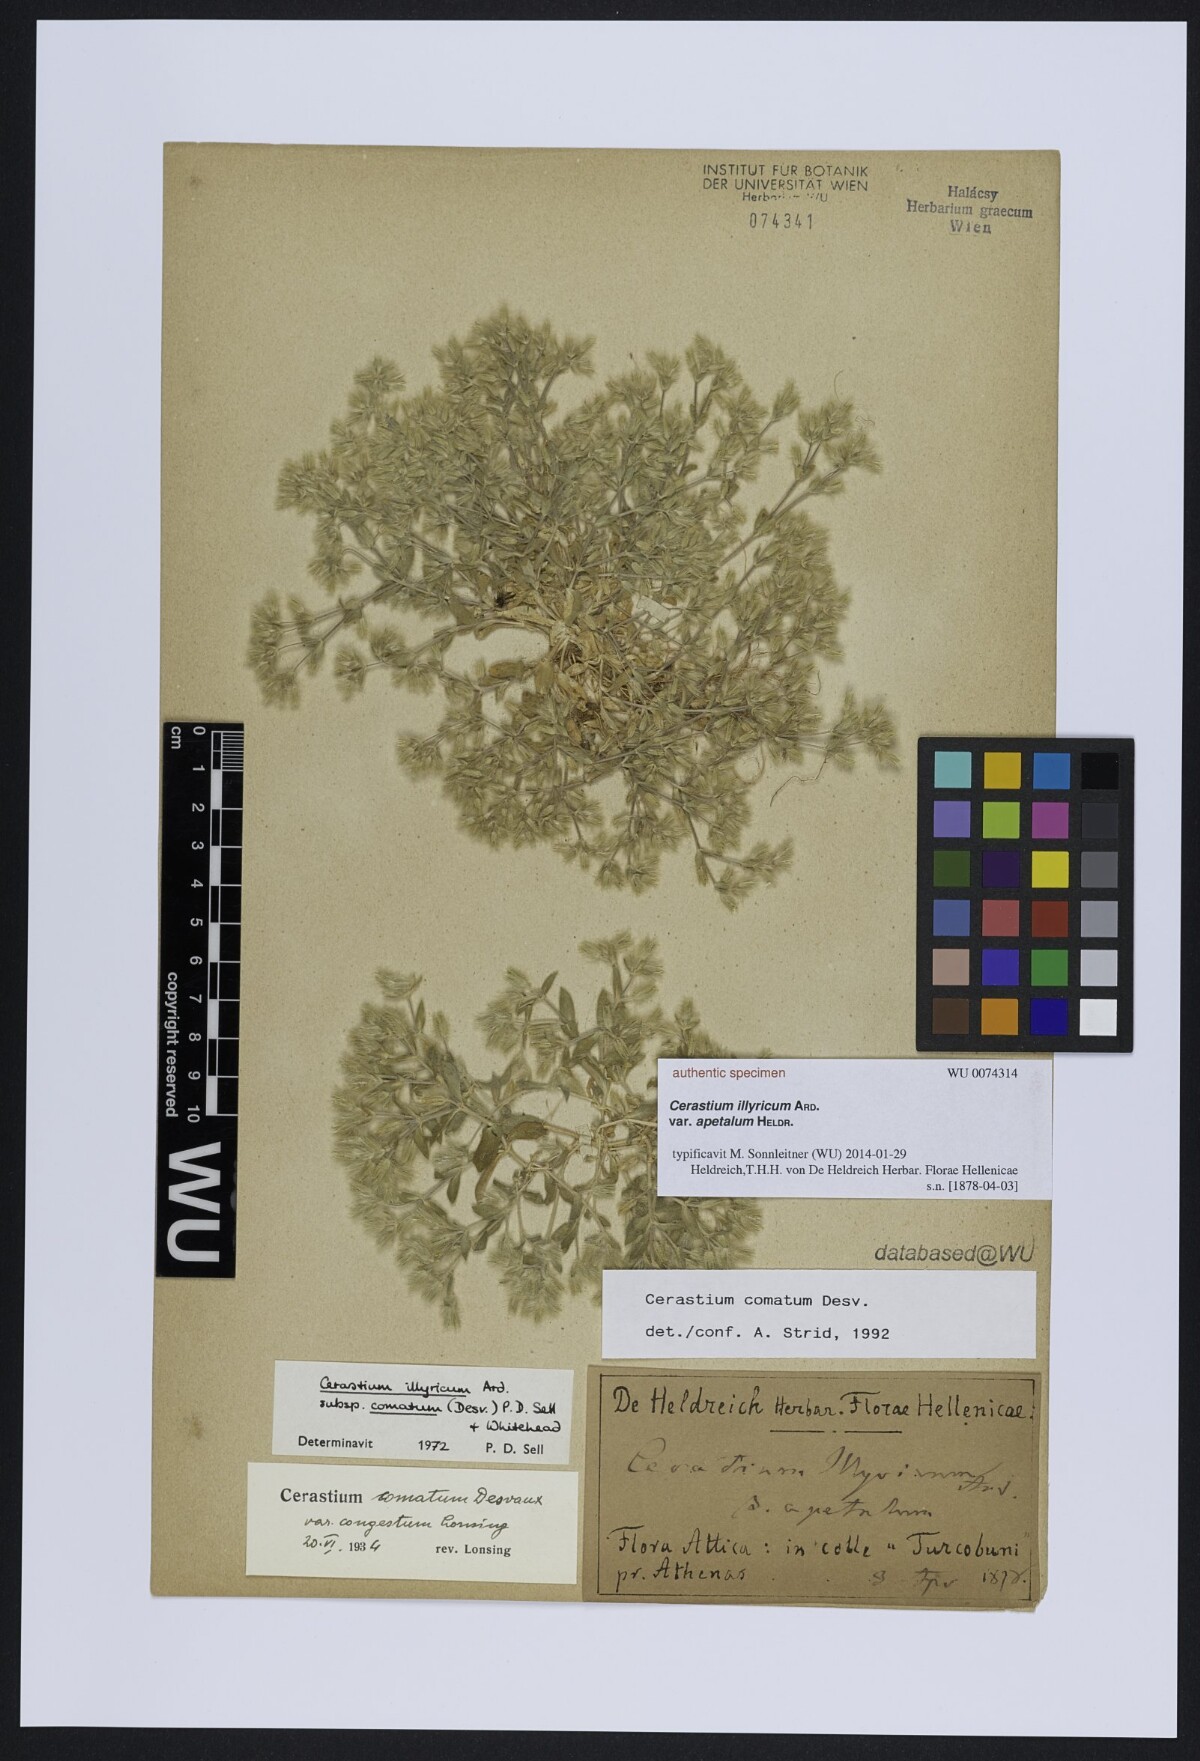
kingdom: Plantae
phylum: Tracheophyta
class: Magnoliopsida
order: Caryophyllales
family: Caryophyllaceae
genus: Cerastium
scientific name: Cerastium illyricum
